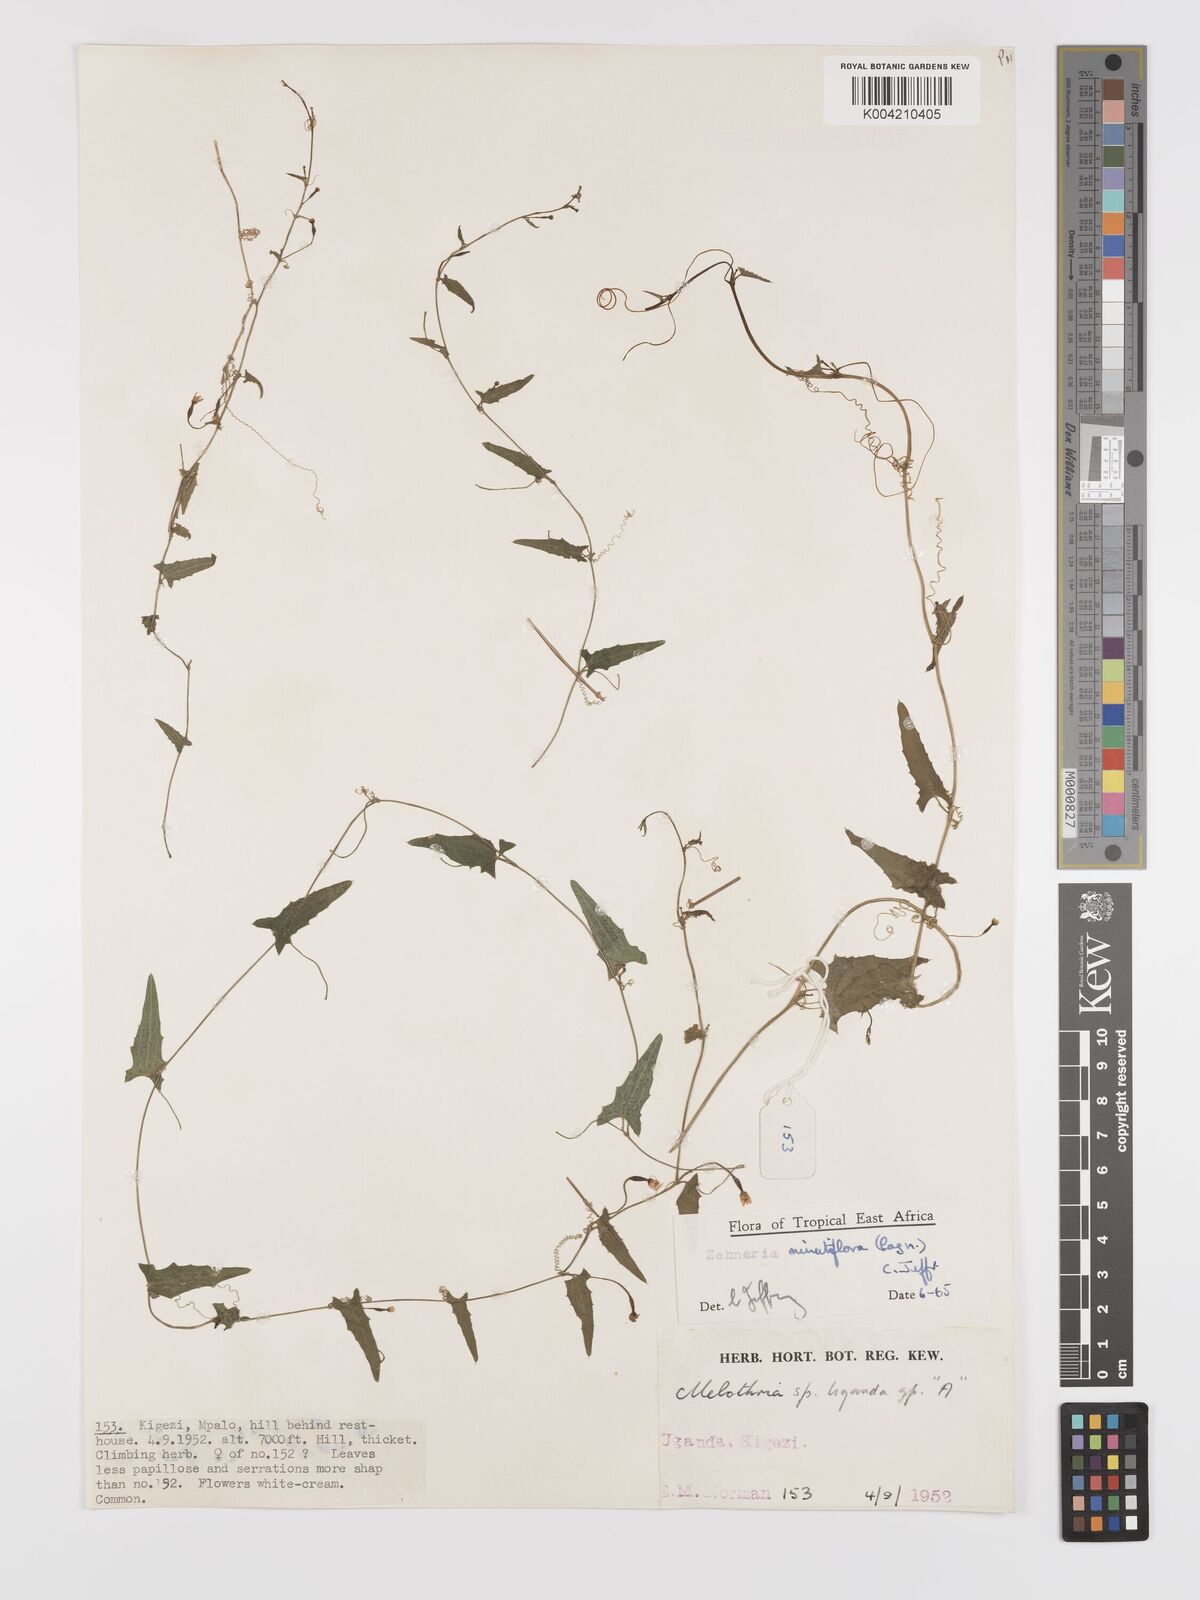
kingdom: Plantae
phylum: Tracheophyta
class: Magnoliopsida
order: Cucurbitales
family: Cucurbitaceae
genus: Zehneria
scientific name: Zehneria minutiflora
